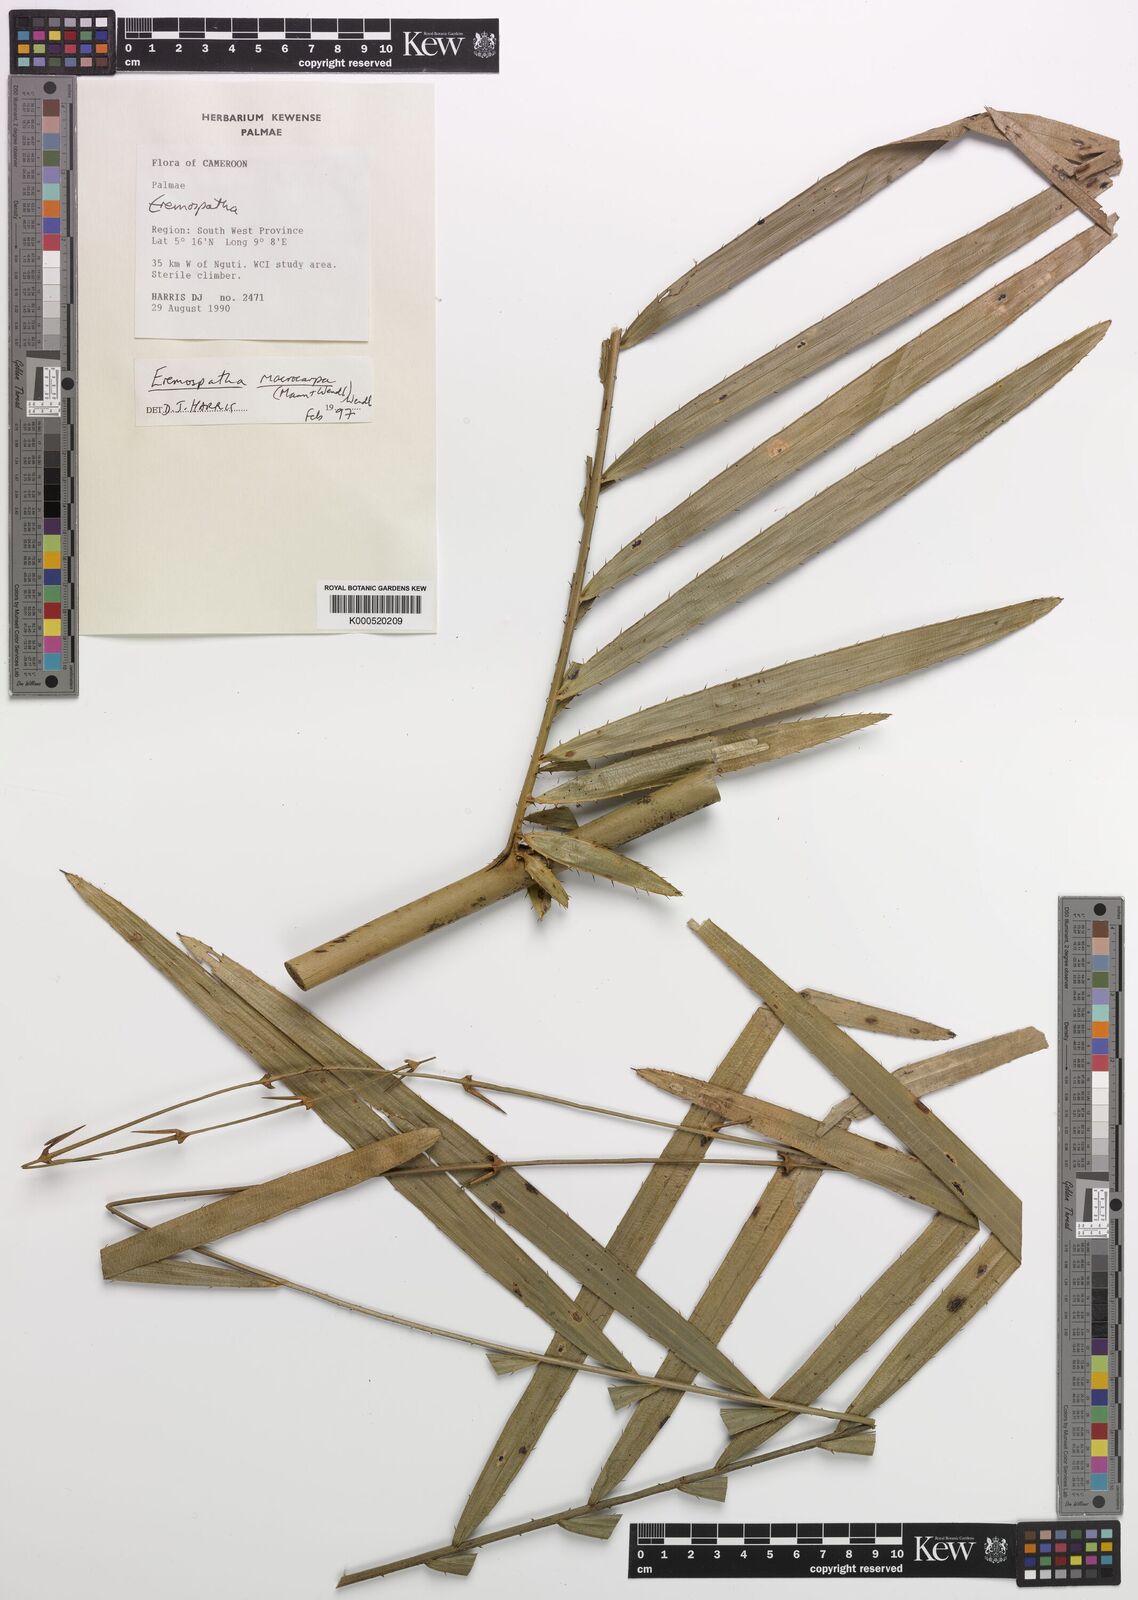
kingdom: Plantae
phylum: Tracheophyta
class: Liliopsida
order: Arecales
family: Arecaceae
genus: Eremospatha
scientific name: Eremospatha
